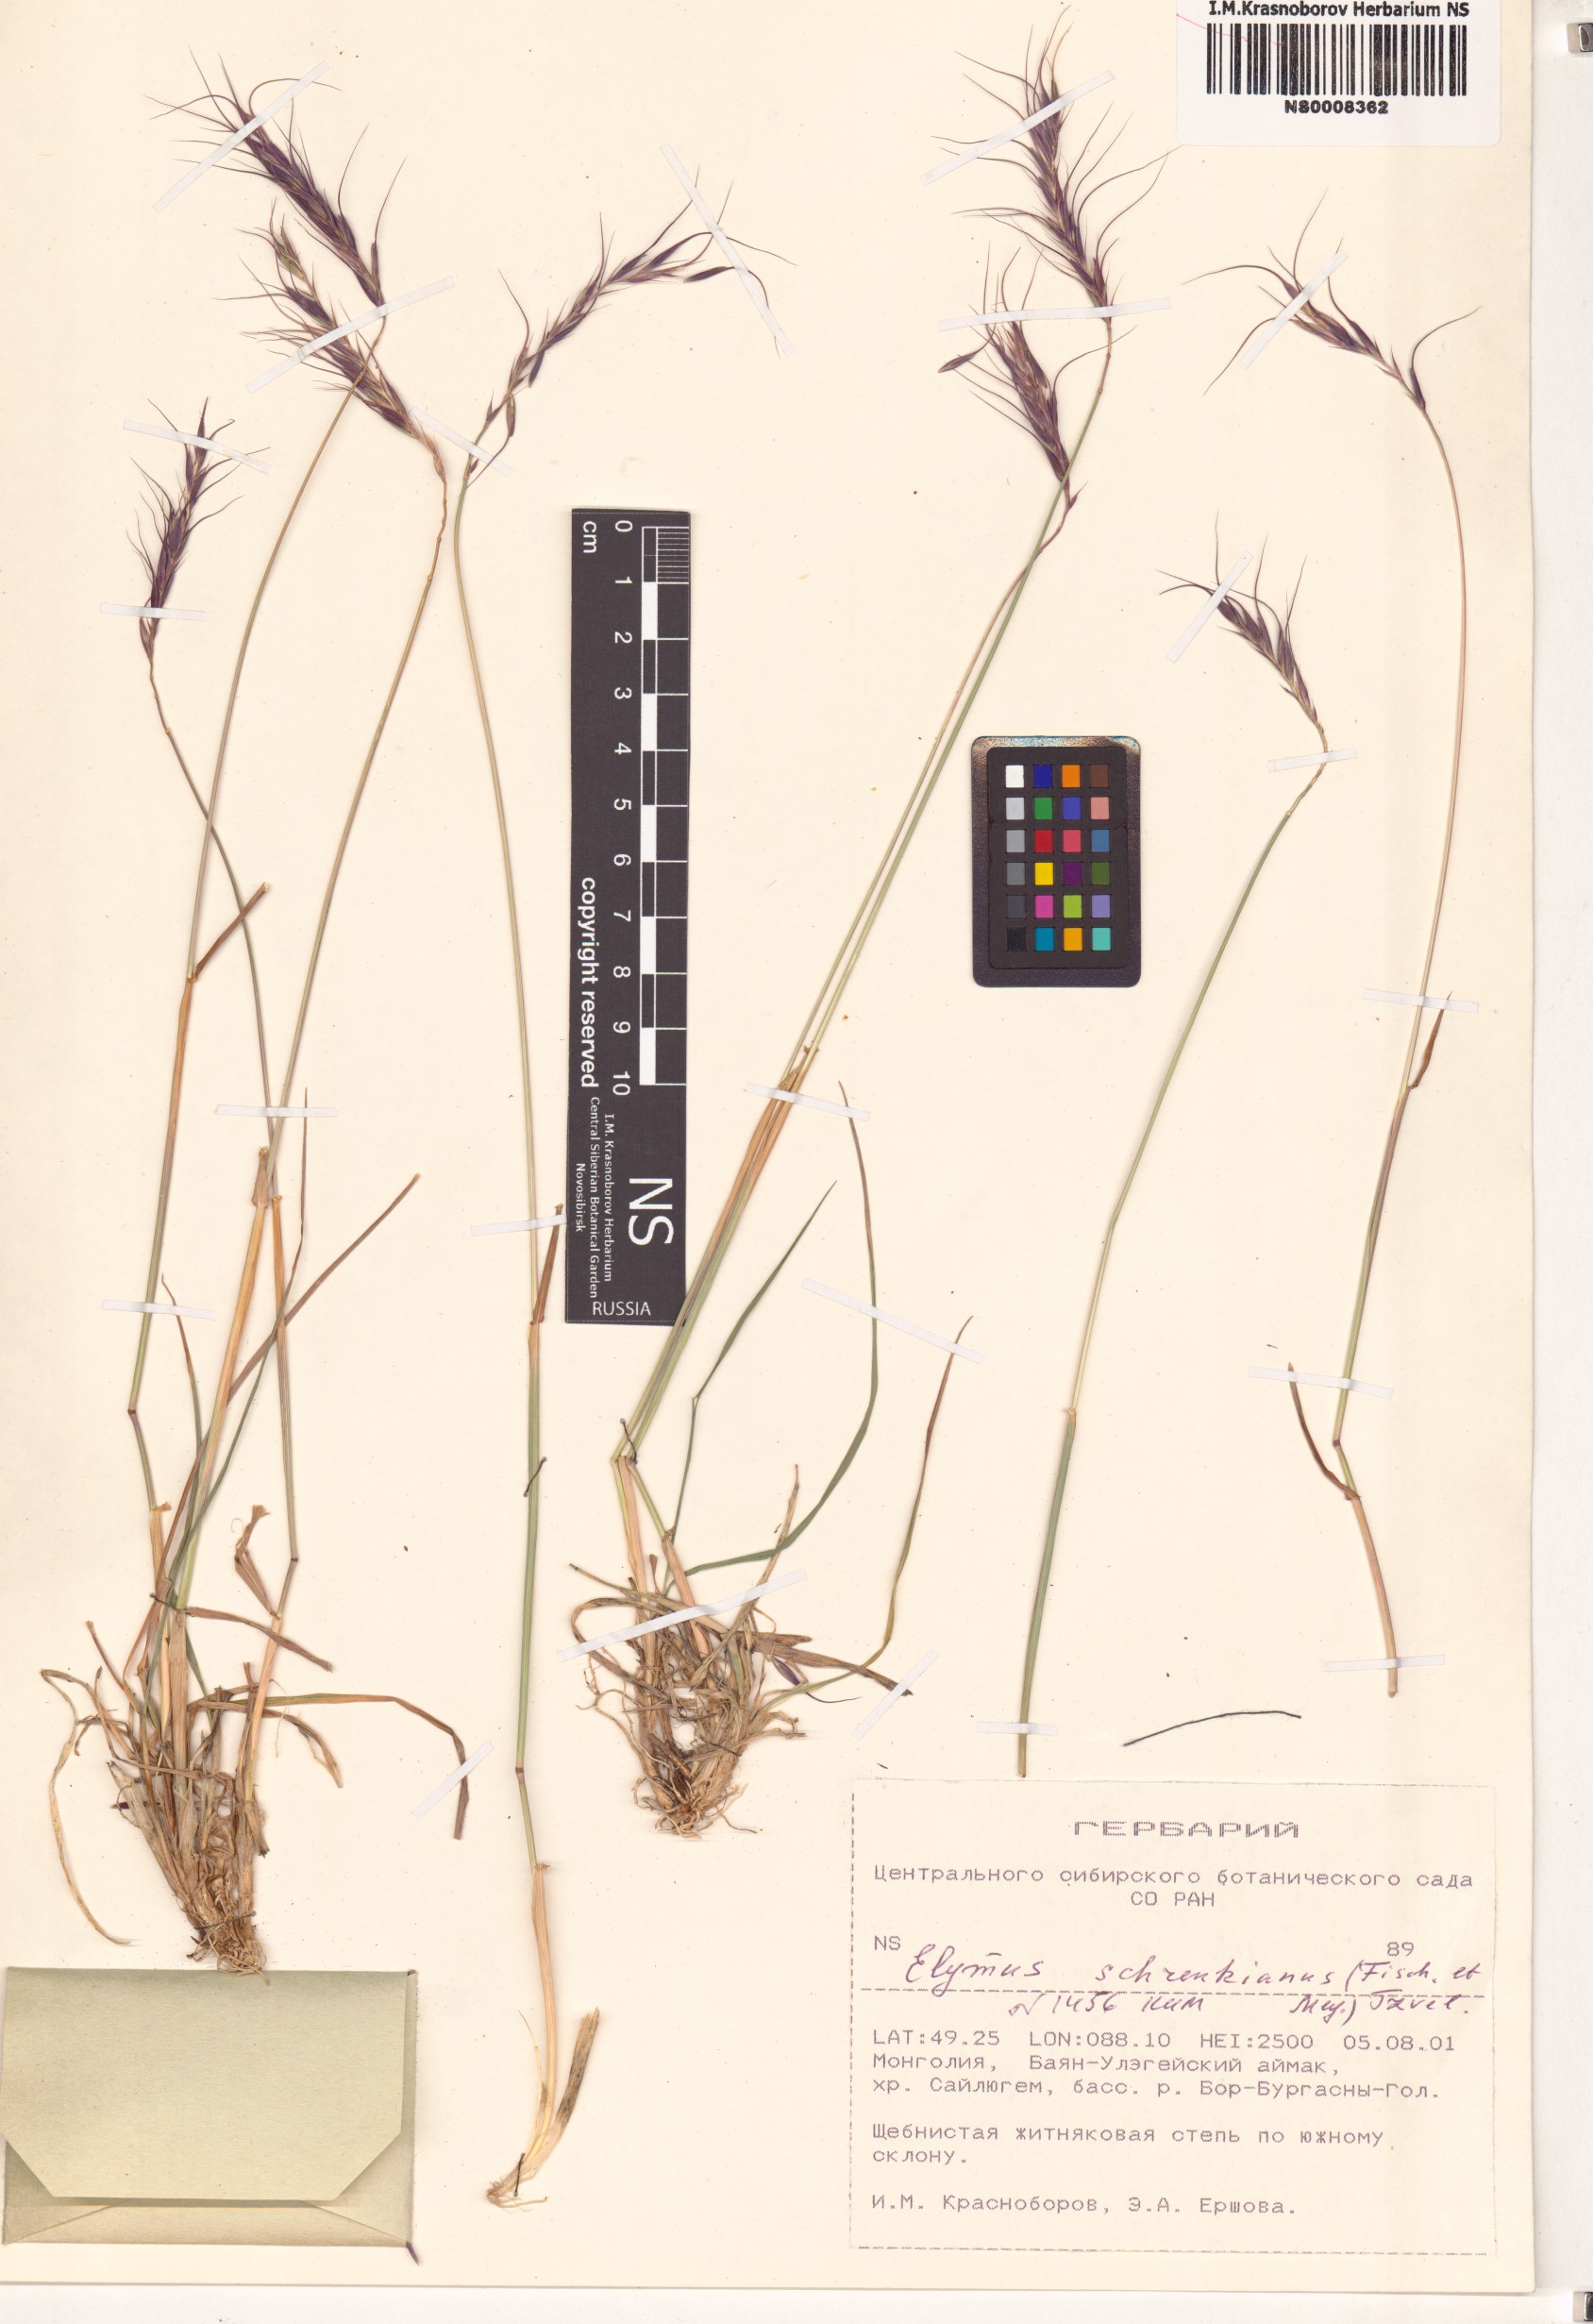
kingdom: Plantae
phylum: Tracheophyta
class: Liliopsida
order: Poales
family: Poaceae
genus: Campeiostachys
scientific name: Campeiostachys schrenkiana
